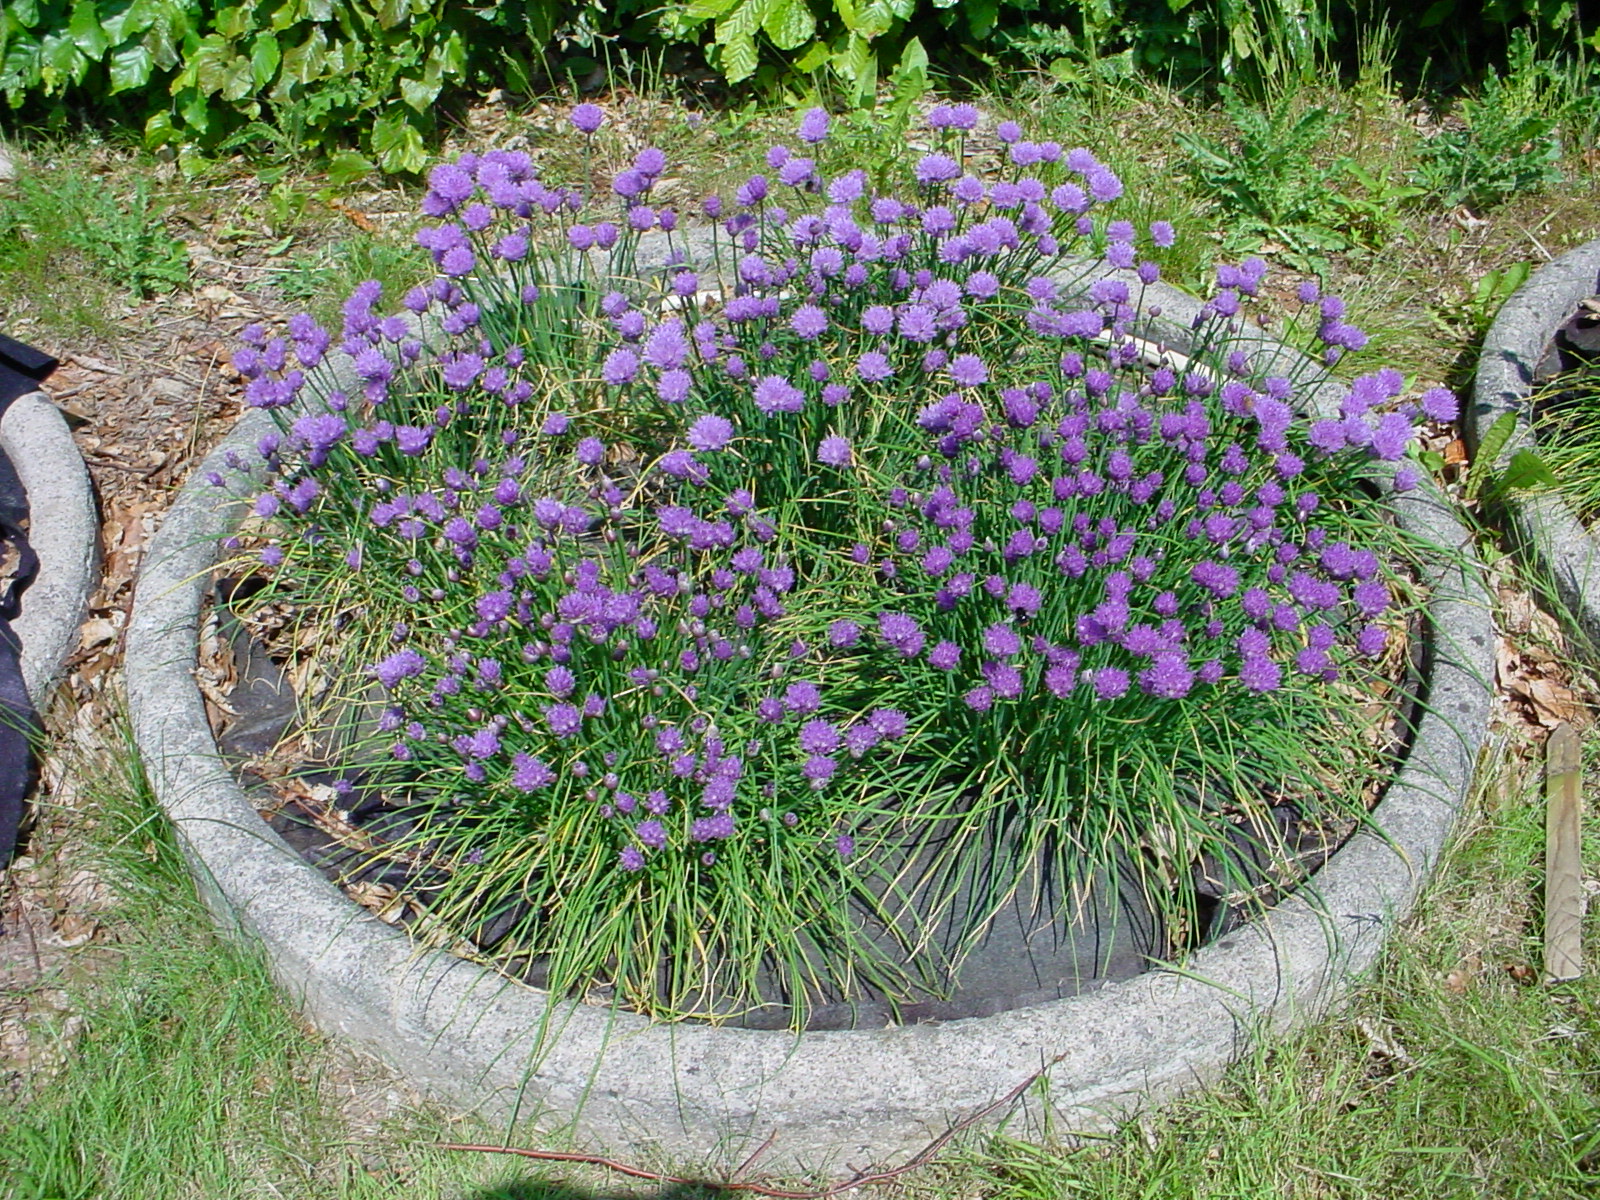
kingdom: Plantae
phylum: Tracheophyta
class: Liliopsida
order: Asparagales
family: Amaryllidaceae
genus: Allium
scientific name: Allium schoenoprasum
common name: Chives
